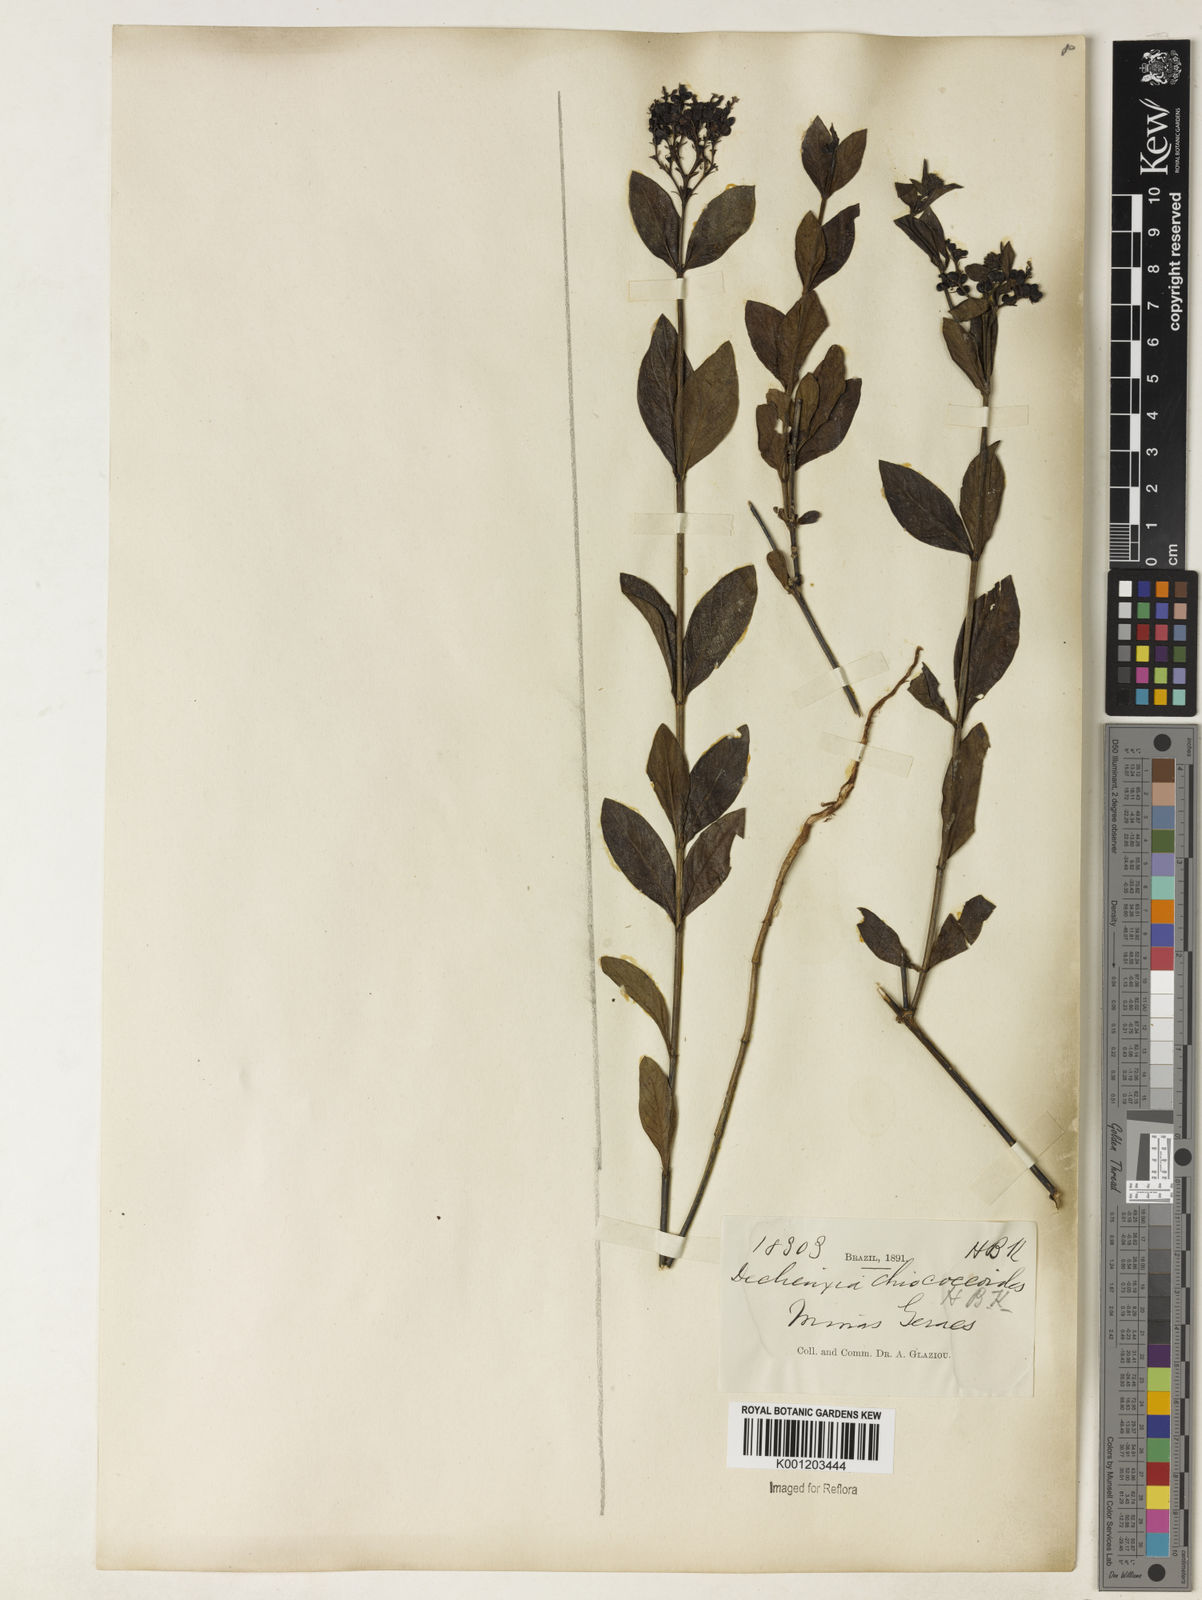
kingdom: Plantae
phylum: Tracheophyta
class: Magnoliopsida
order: Gentianales
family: Rubiaceae
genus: Declieuxia
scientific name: Declieuxia fruticosa
